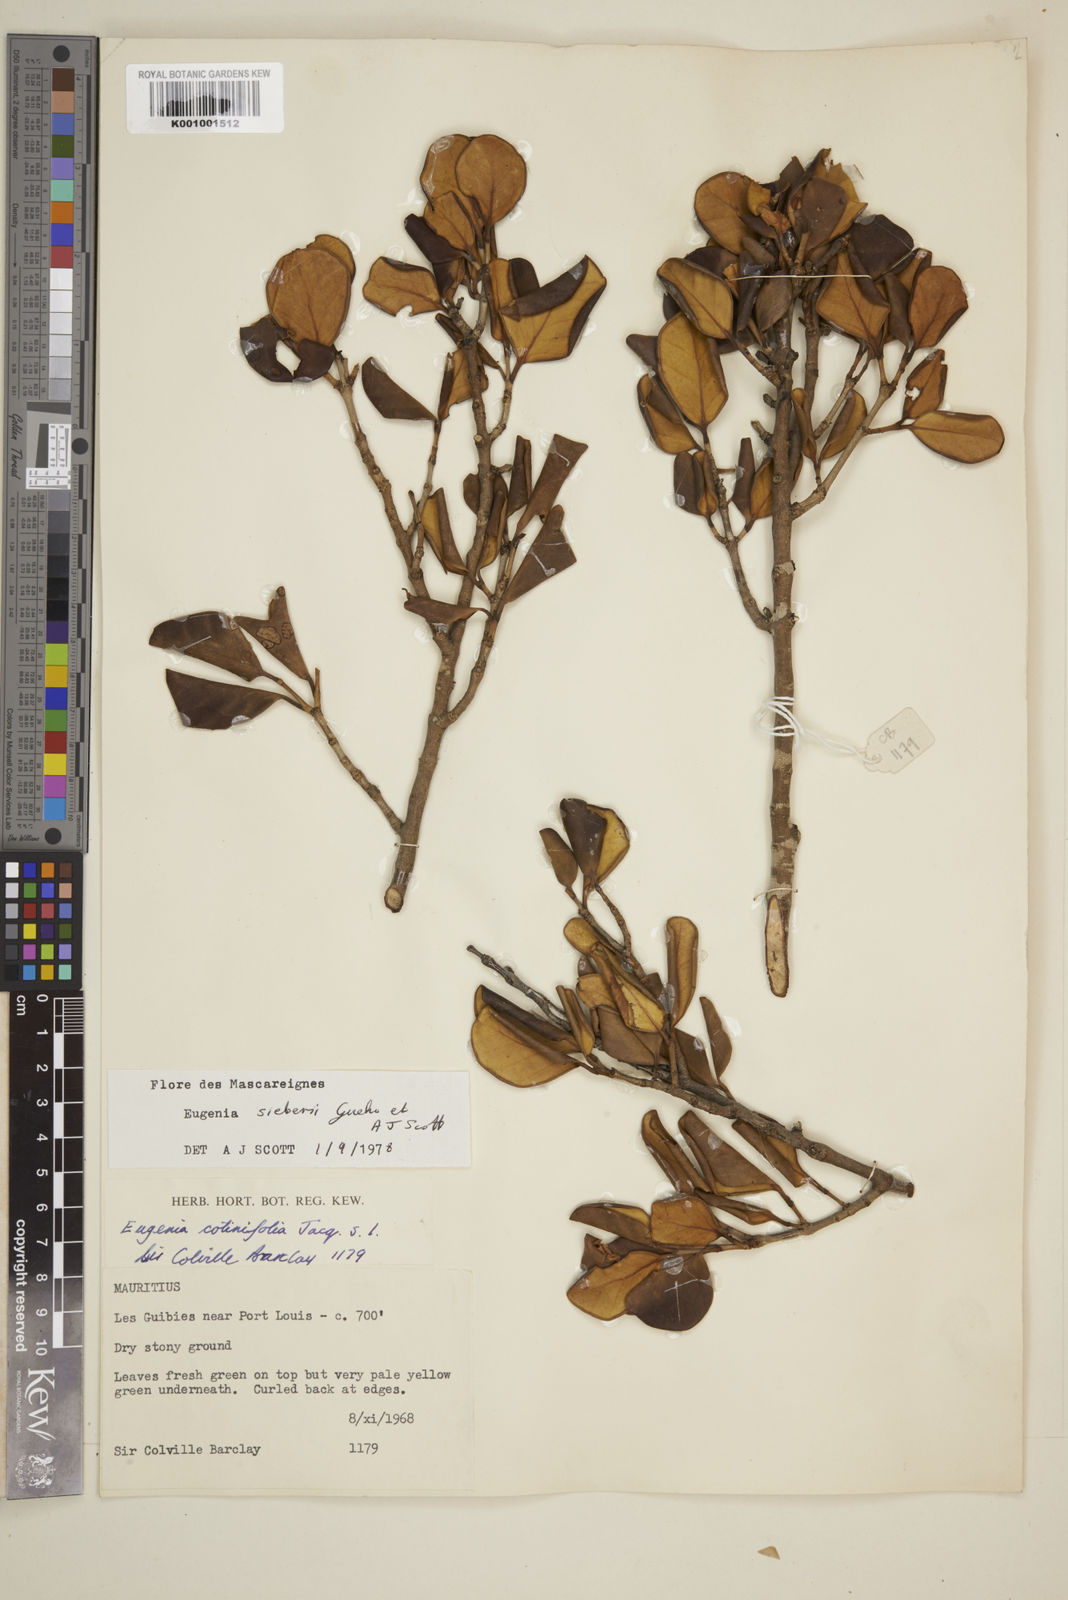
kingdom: Plantae
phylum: Tracheophyta
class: Magnoliopsida
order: Myrtales
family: Myrtaceae
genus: Eugenia
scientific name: Eugenia
